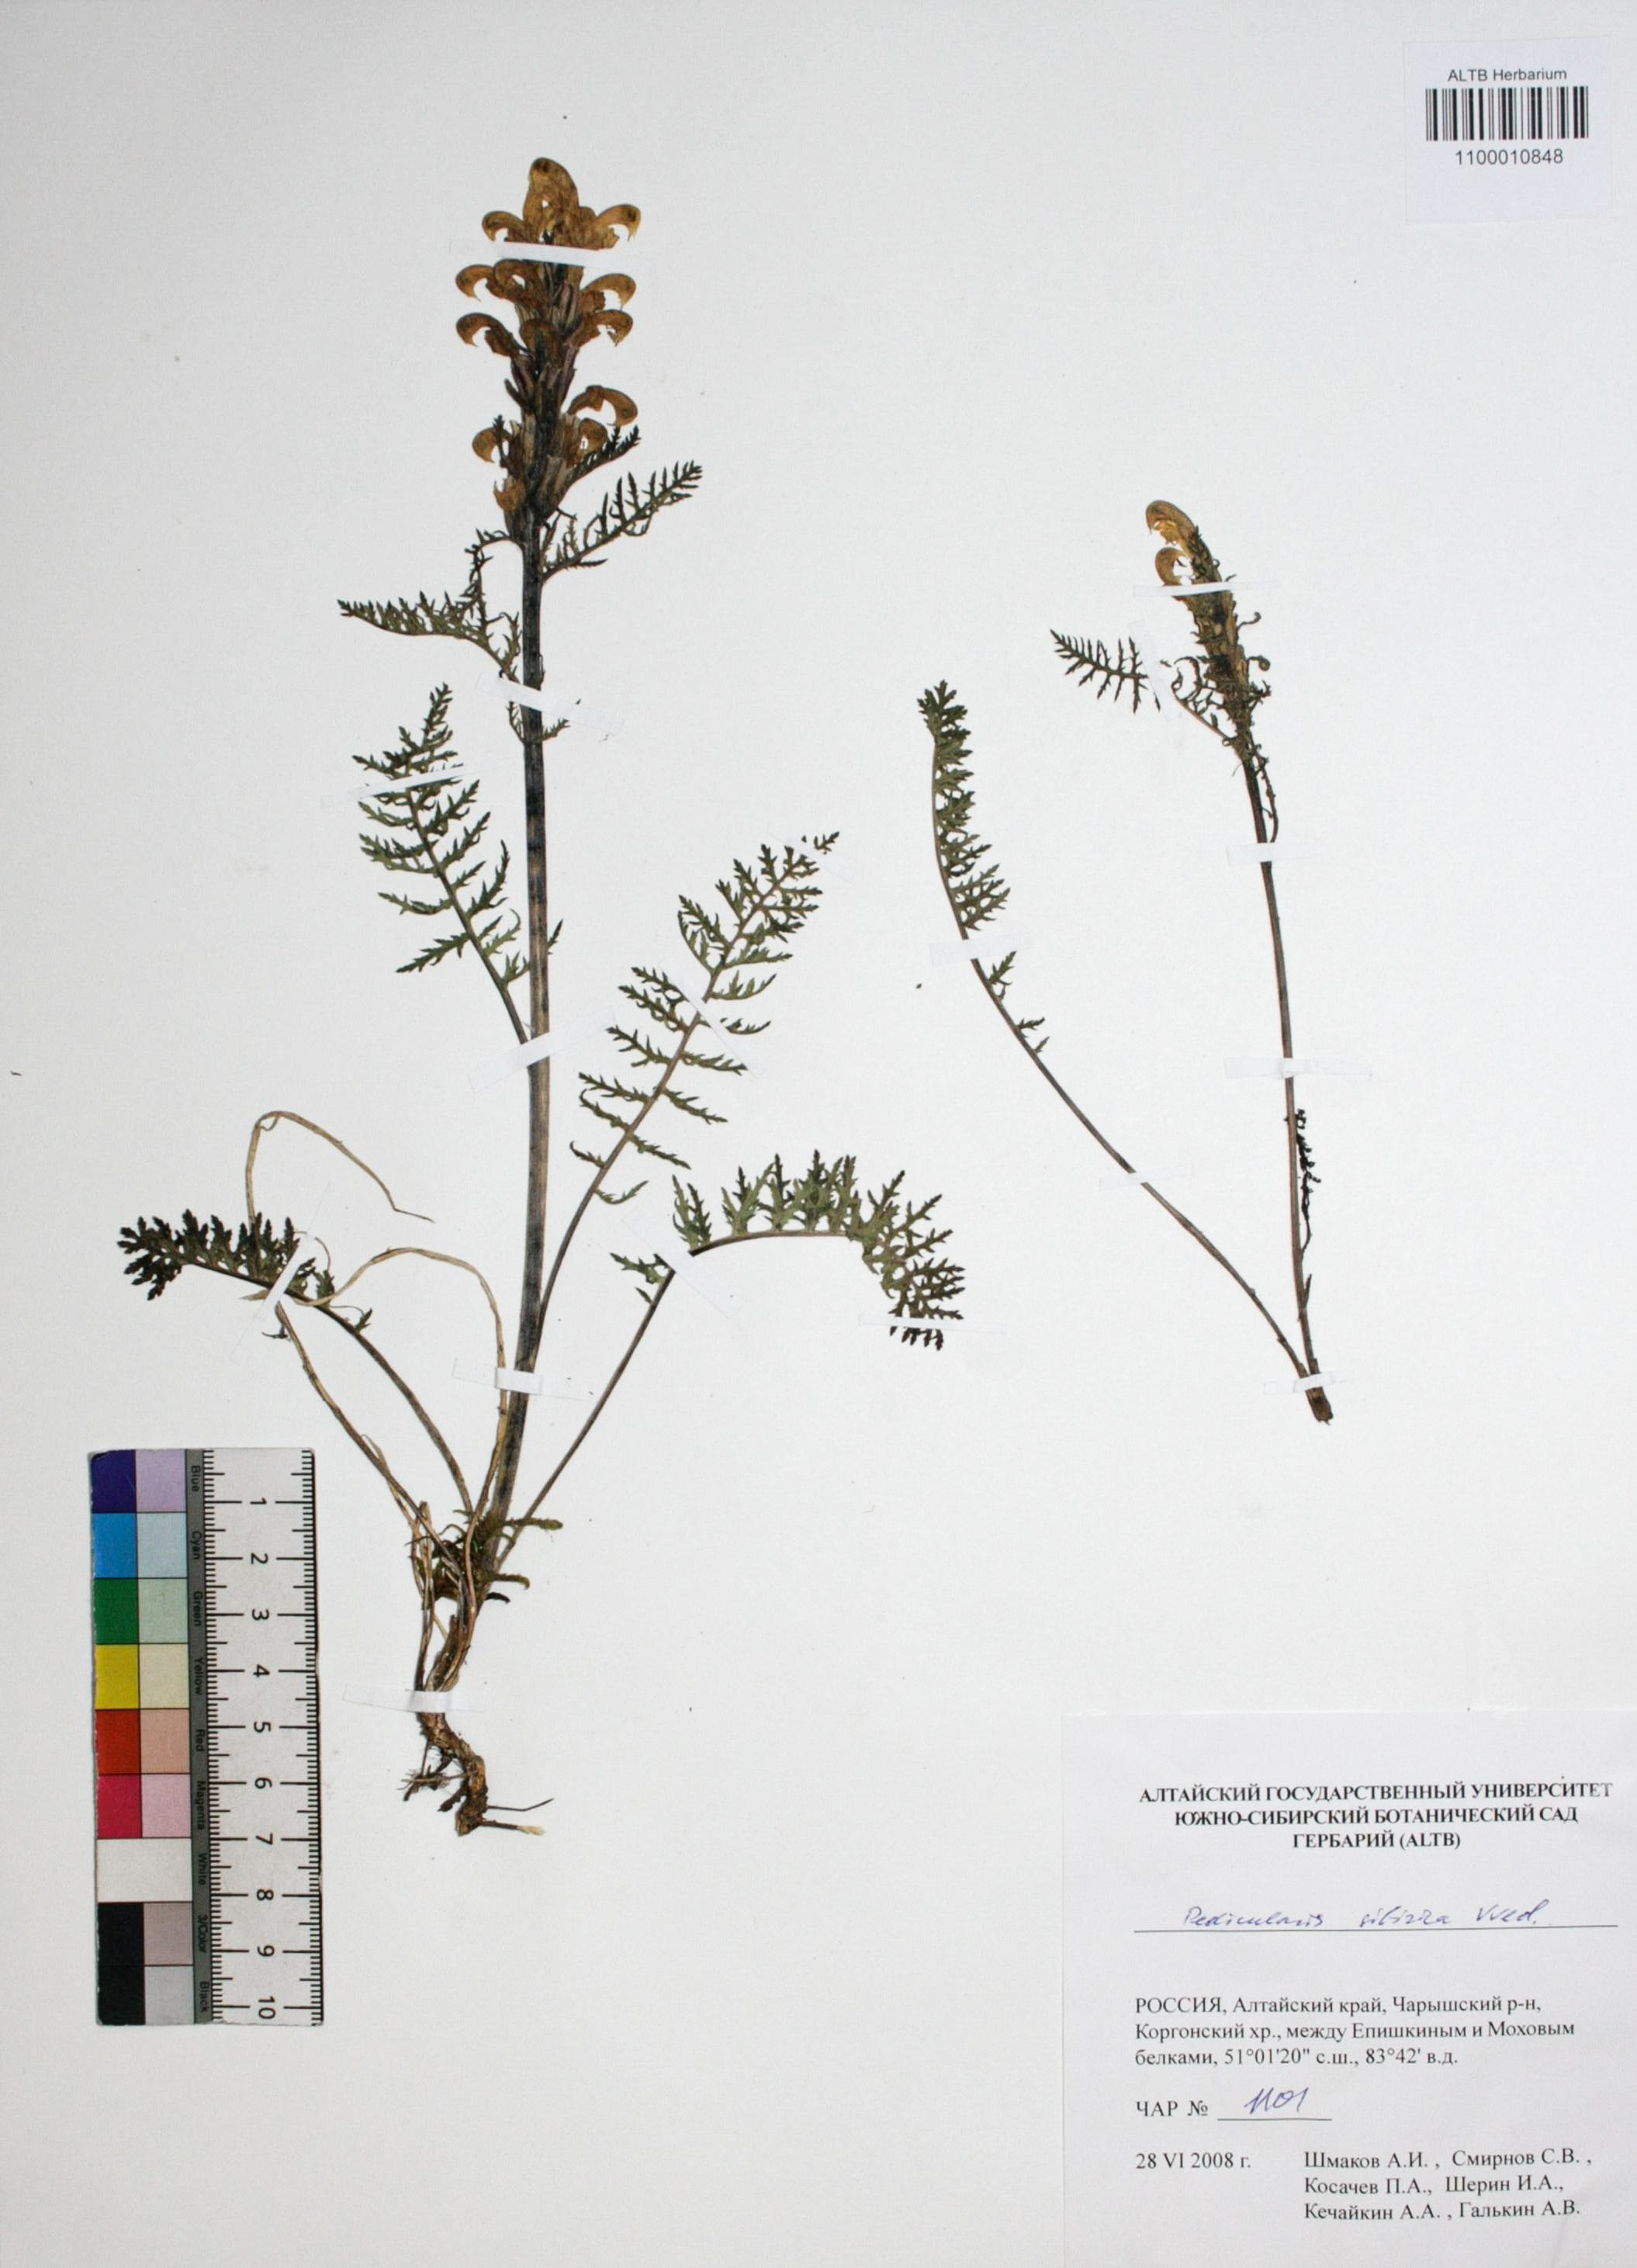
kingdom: Plantae
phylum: Tracheophyta
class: Magnoliopsida
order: Lamiales
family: Orobanchaceae
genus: Pedicularis
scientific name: Pedicularis sibirica
